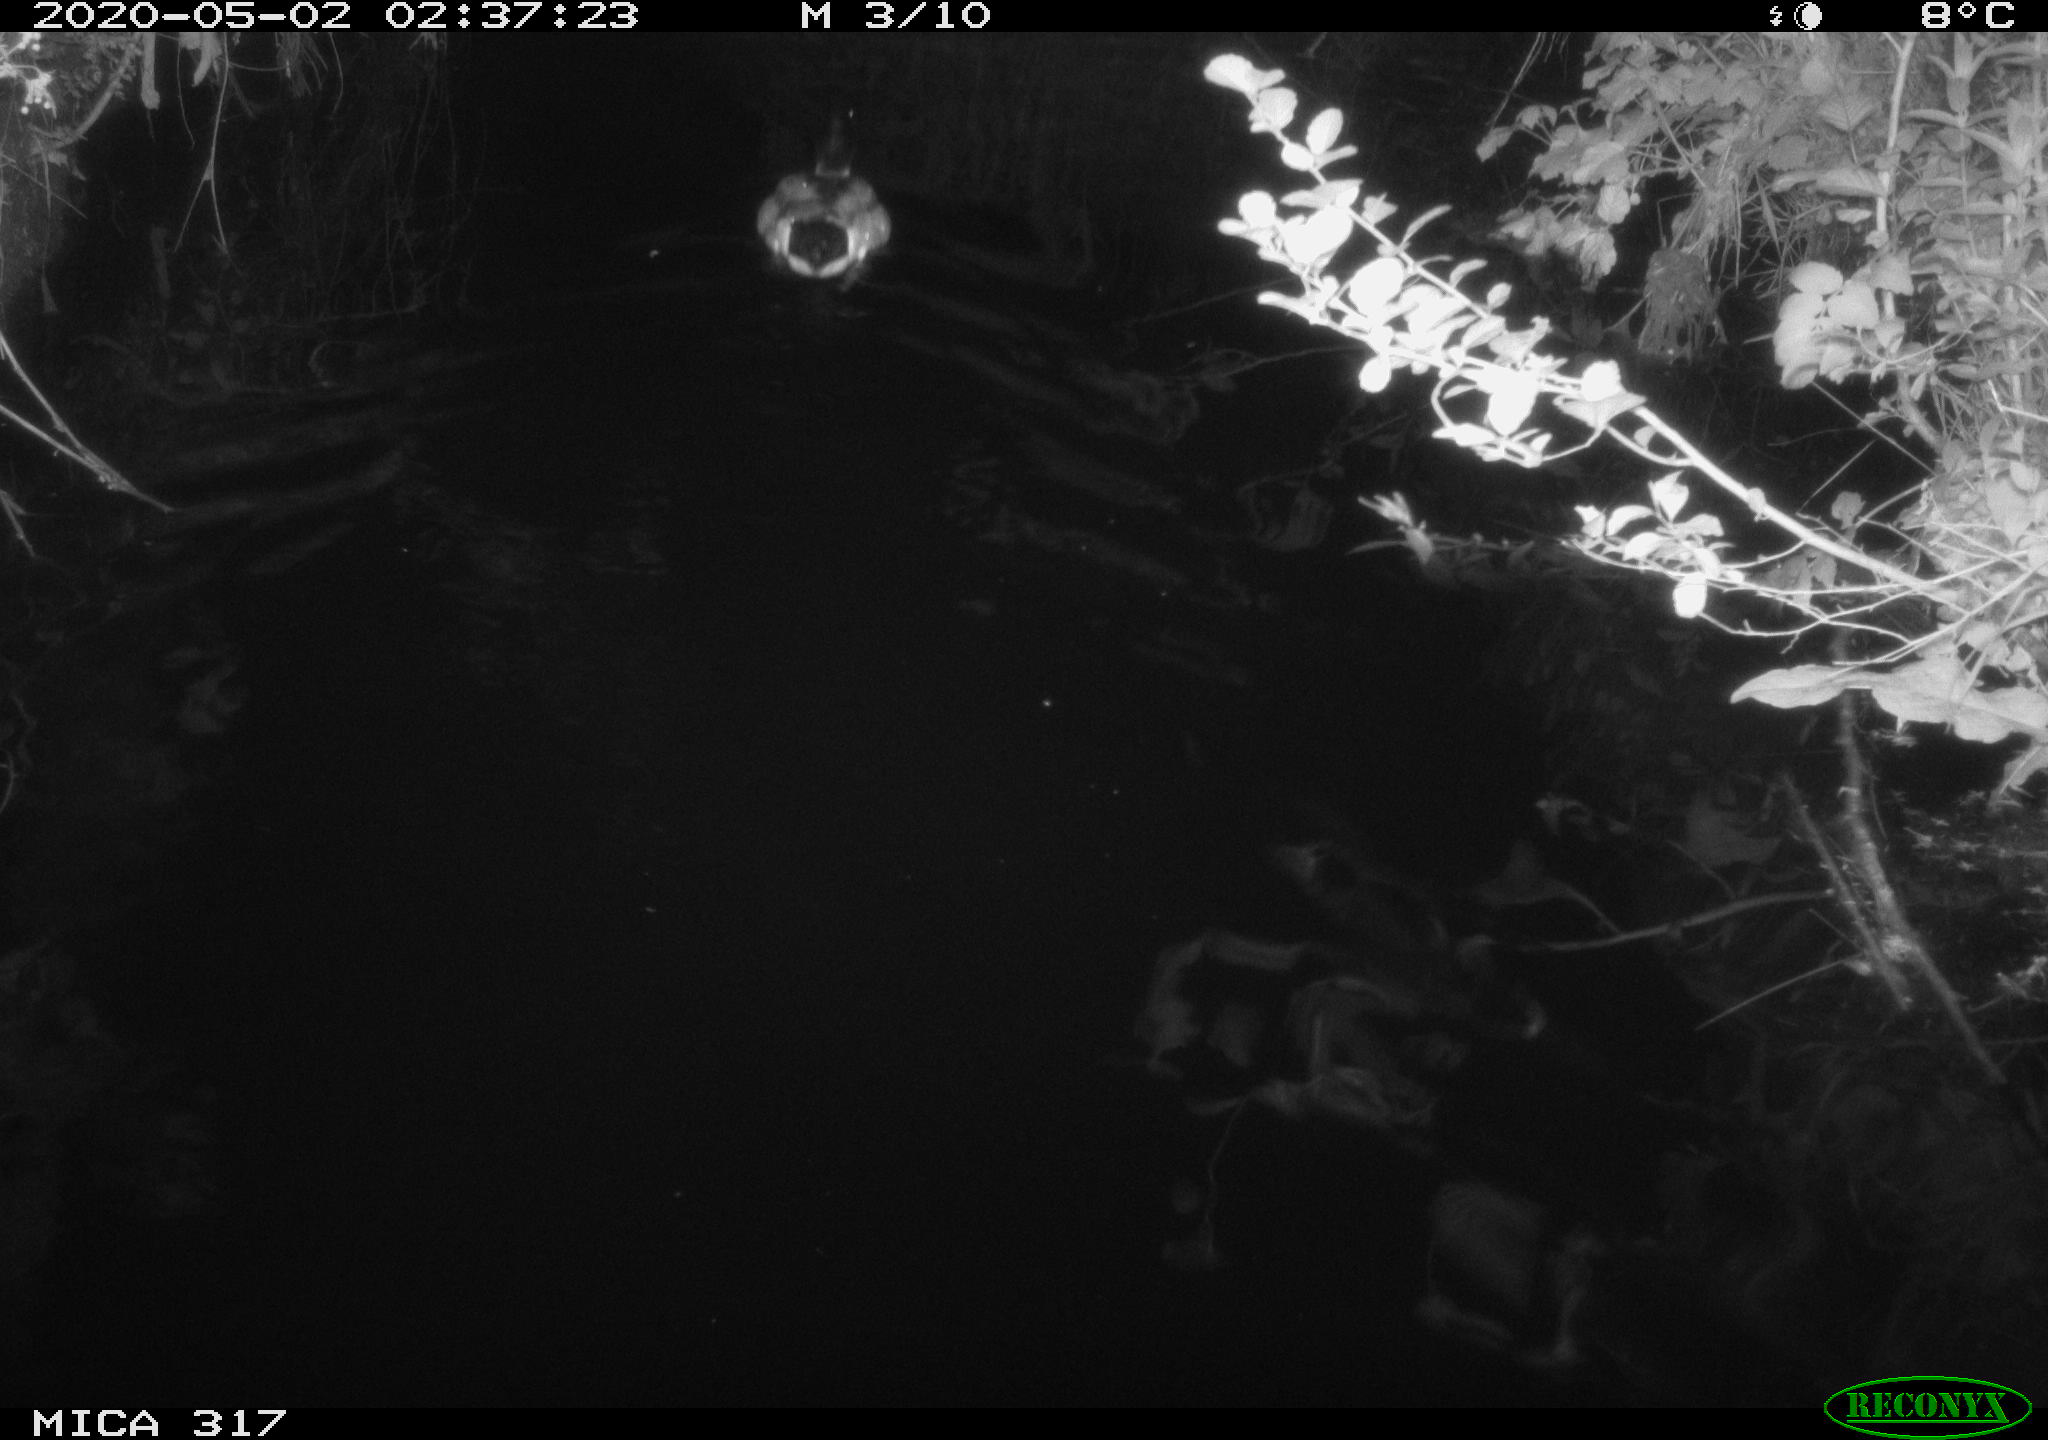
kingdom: Animalia
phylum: Chordata
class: Aves
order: Anseriformes
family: Anatidae
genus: Anas
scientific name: Anas platyrhynchos
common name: Mallard
